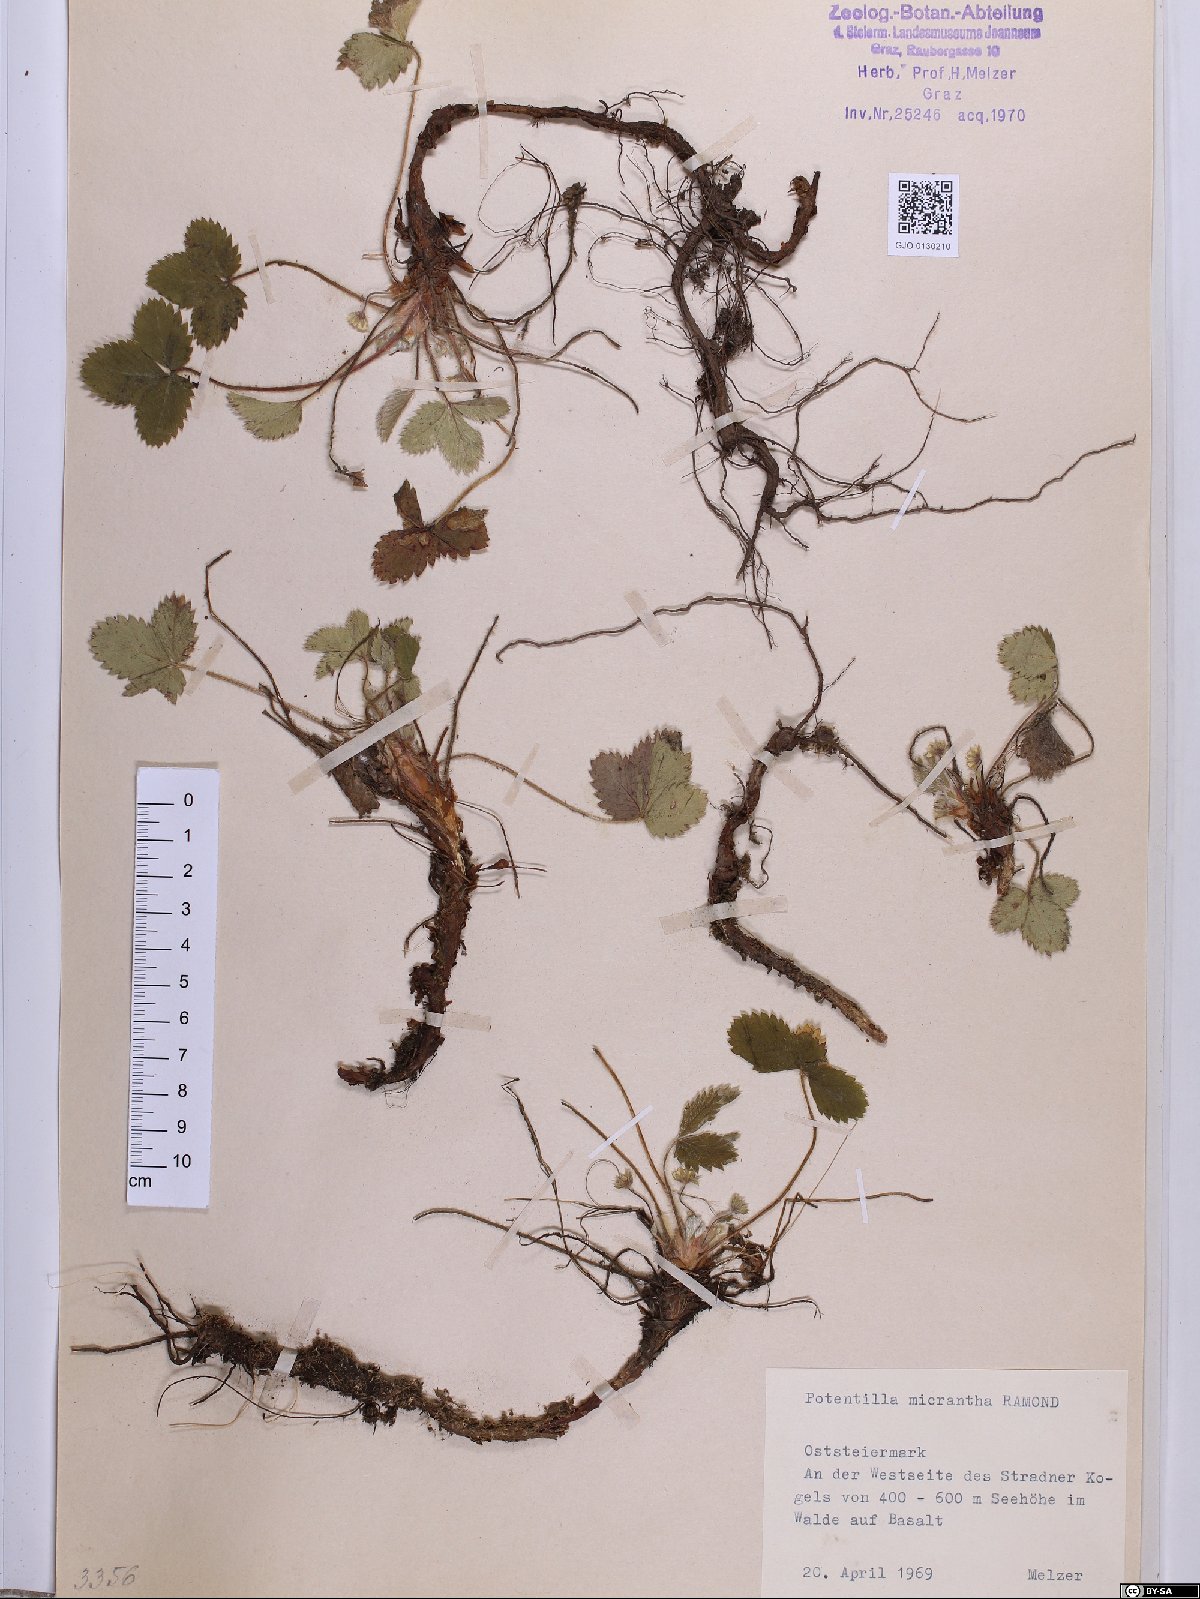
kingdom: Plantae
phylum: Tracheophyta
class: Magnoliopsida
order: Rosales
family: Rosaceae
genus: Potentilla
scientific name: Potentilla micrantha
